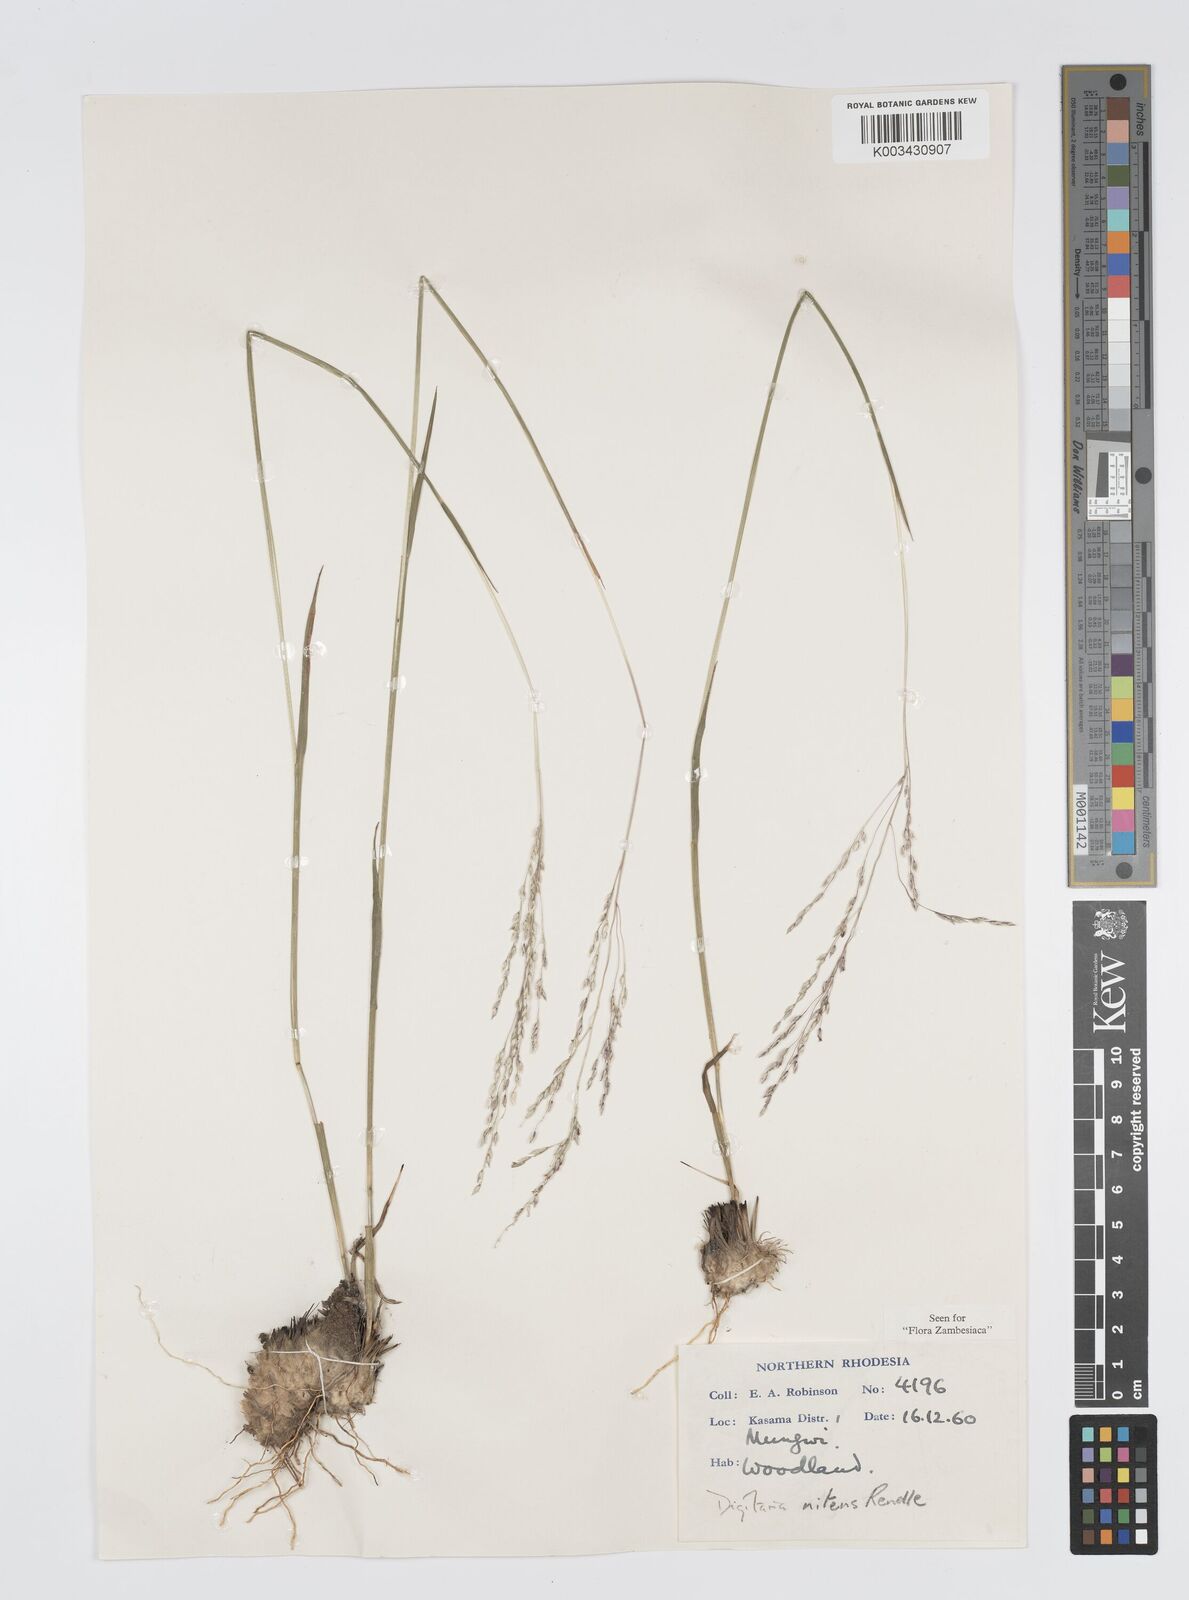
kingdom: Plantae
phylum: Tracheophyta
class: Liliopsida
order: Poales
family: Poaceae
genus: Digitaria
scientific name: Digitaria flaccida
